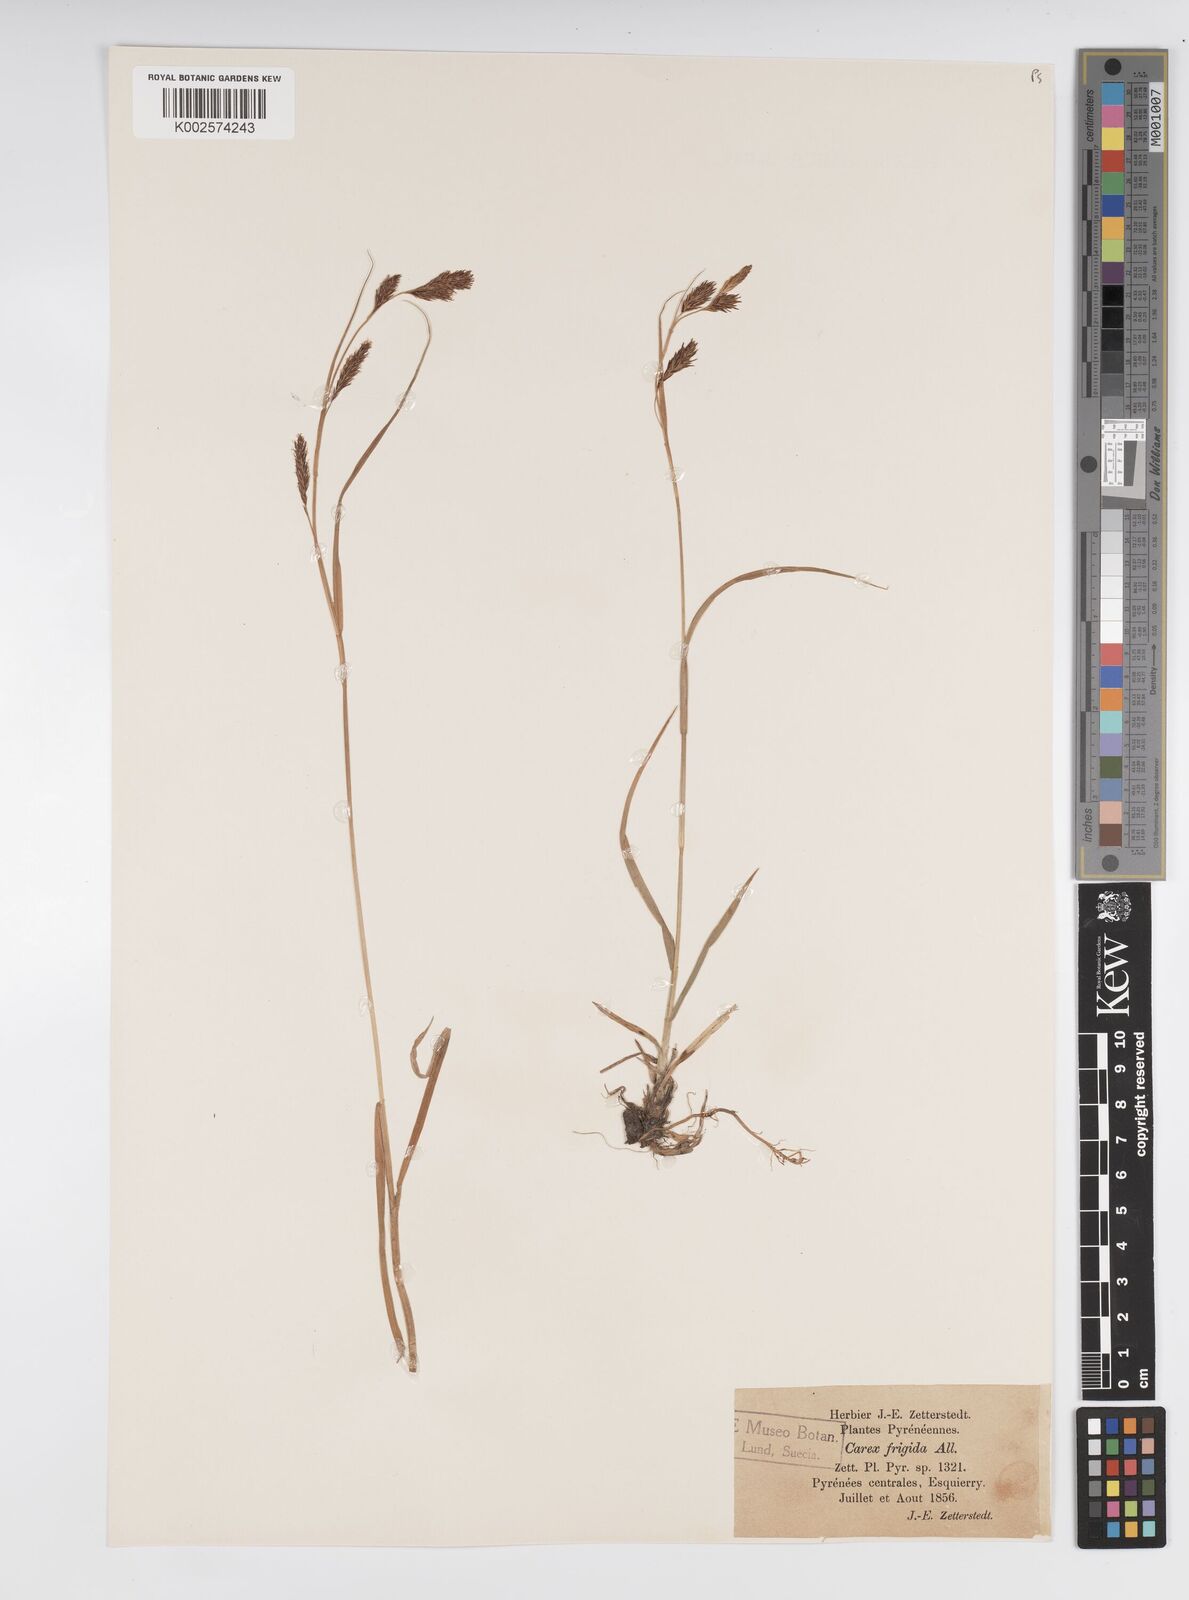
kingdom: Plantae
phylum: Tracheophyta
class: Liliopsida
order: Poales
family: Cyperaceae
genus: Carex
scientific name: Carex frigida
